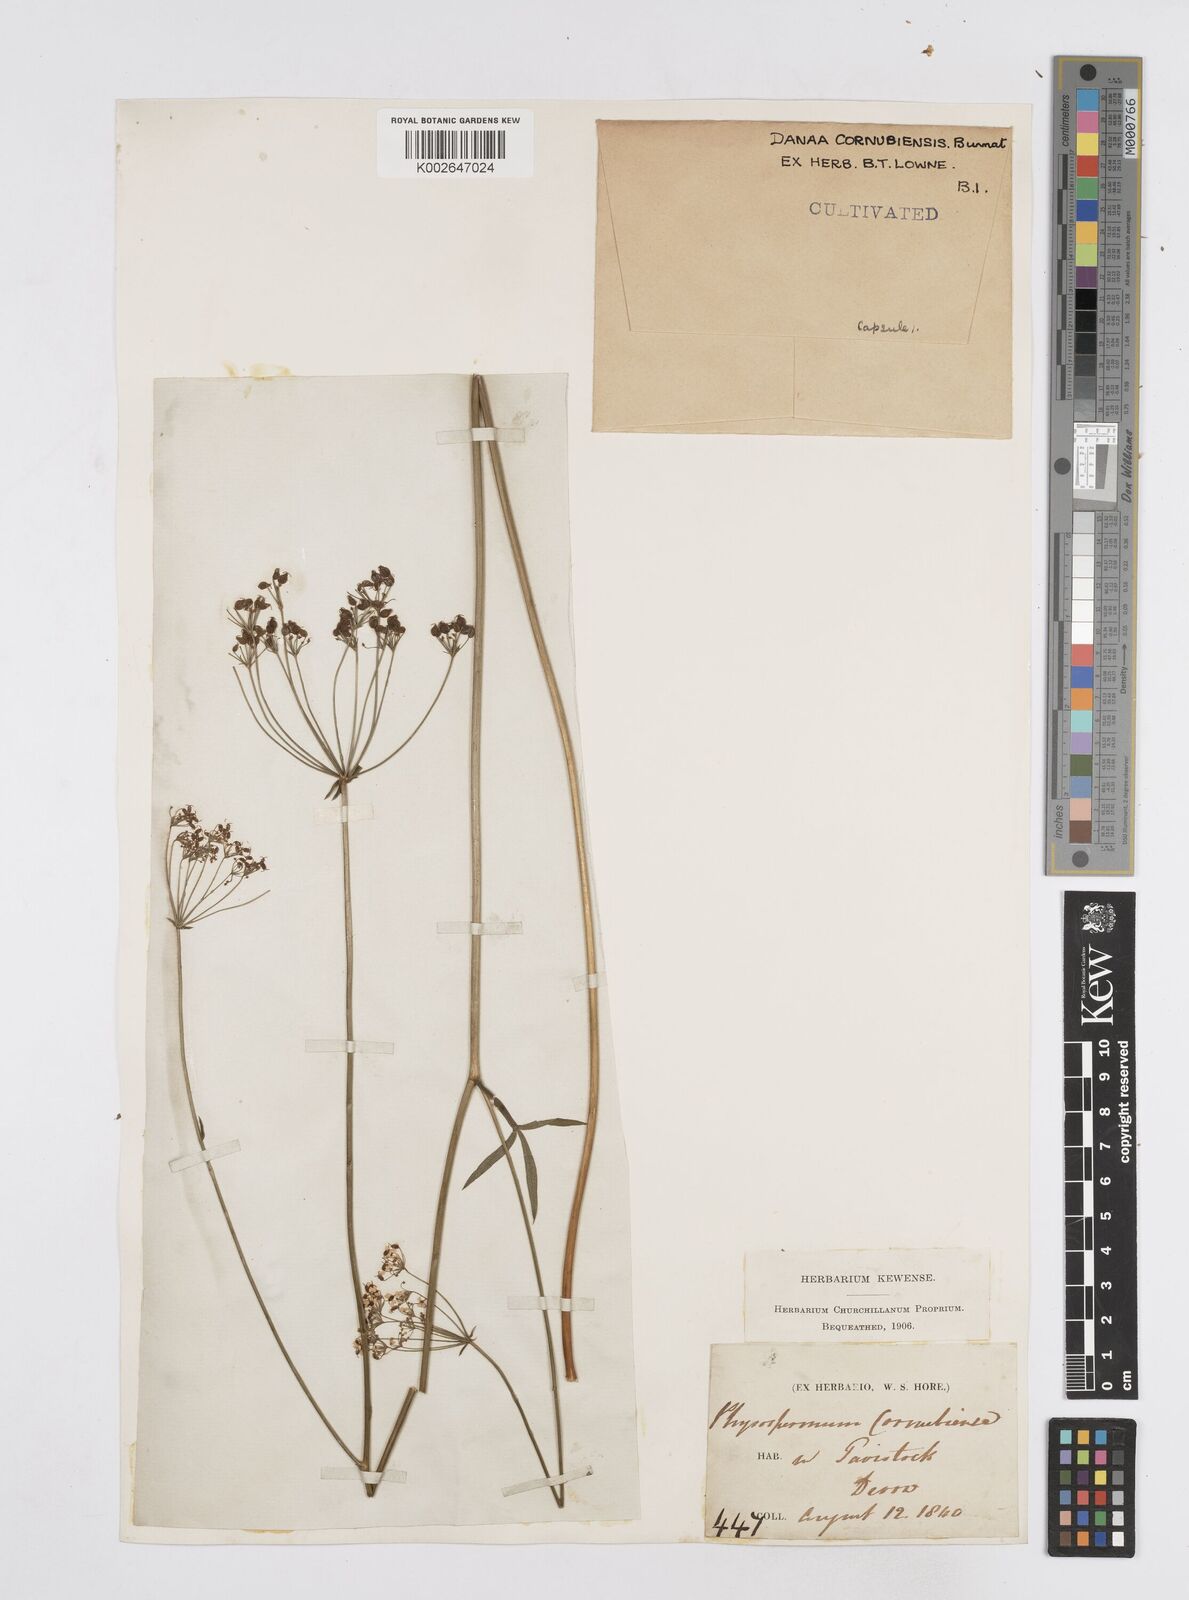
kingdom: Plantae
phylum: Tracheophyta
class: Magnoliopsida
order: Apiales
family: Apiaceae
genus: Physospermum
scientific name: Physospermum cornubiense
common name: Bladderseed
